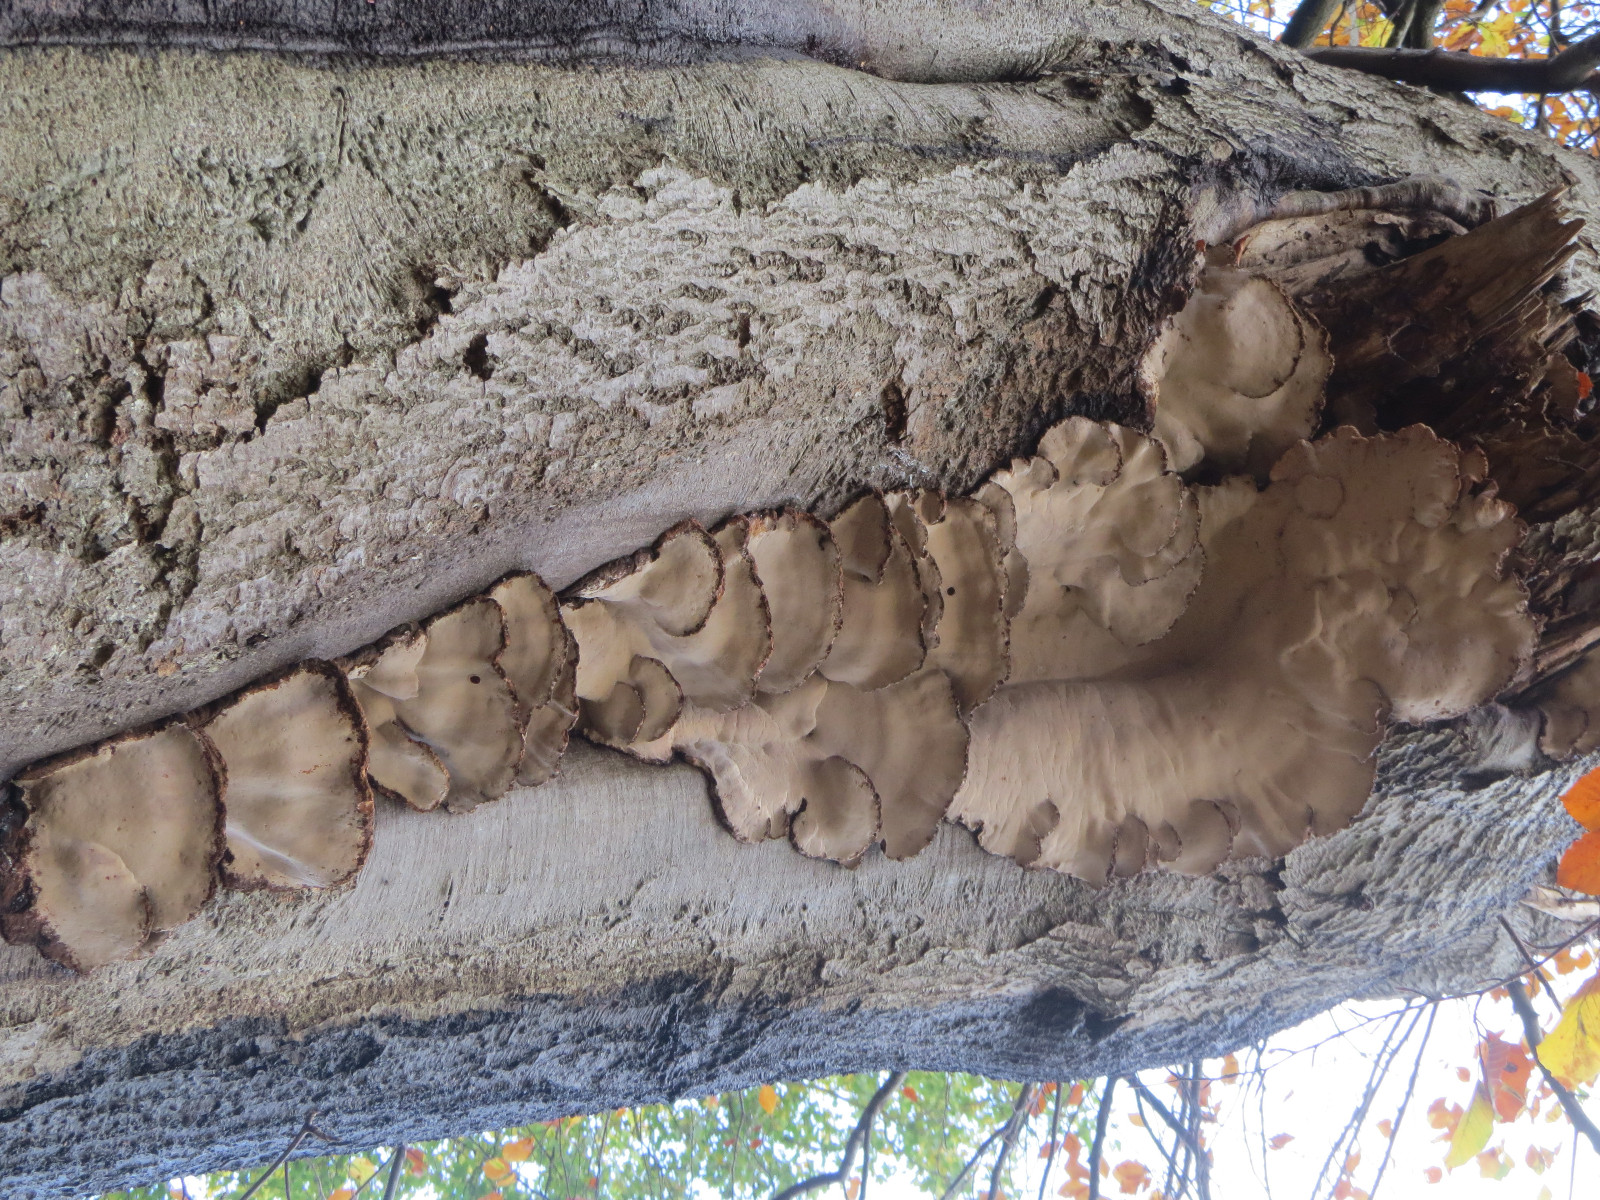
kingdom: Fungi
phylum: Basidiomycota
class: Agaricomycetes
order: Polyporales
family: Ischnodermataceae
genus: Ischnoderma
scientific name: Ischnoderma resinosum
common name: løv-tjæreporesvamp
